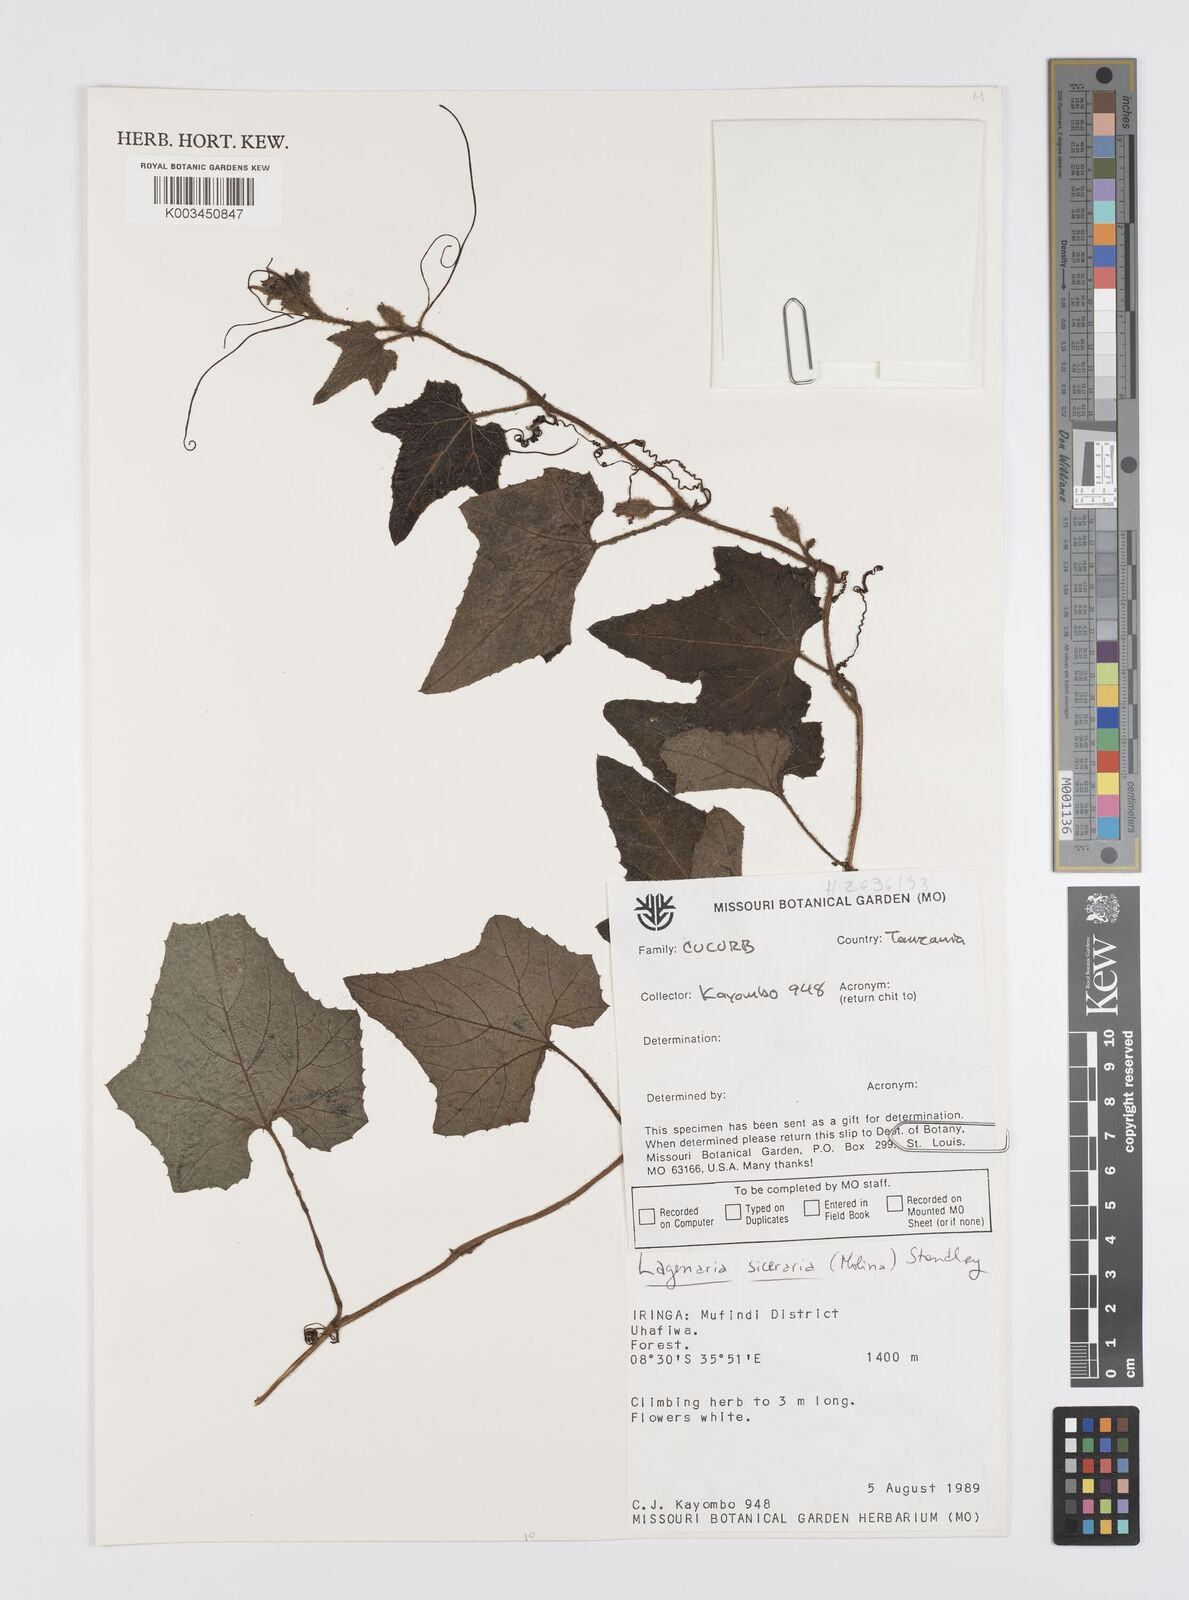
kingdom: Plantae
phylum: Tracheophyta
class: Magnoliopsida
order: Cucurbitales
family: Cucurbitaceae
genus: Lagenaria
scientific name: Lagenaria siceraria
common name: Bottle gourd
